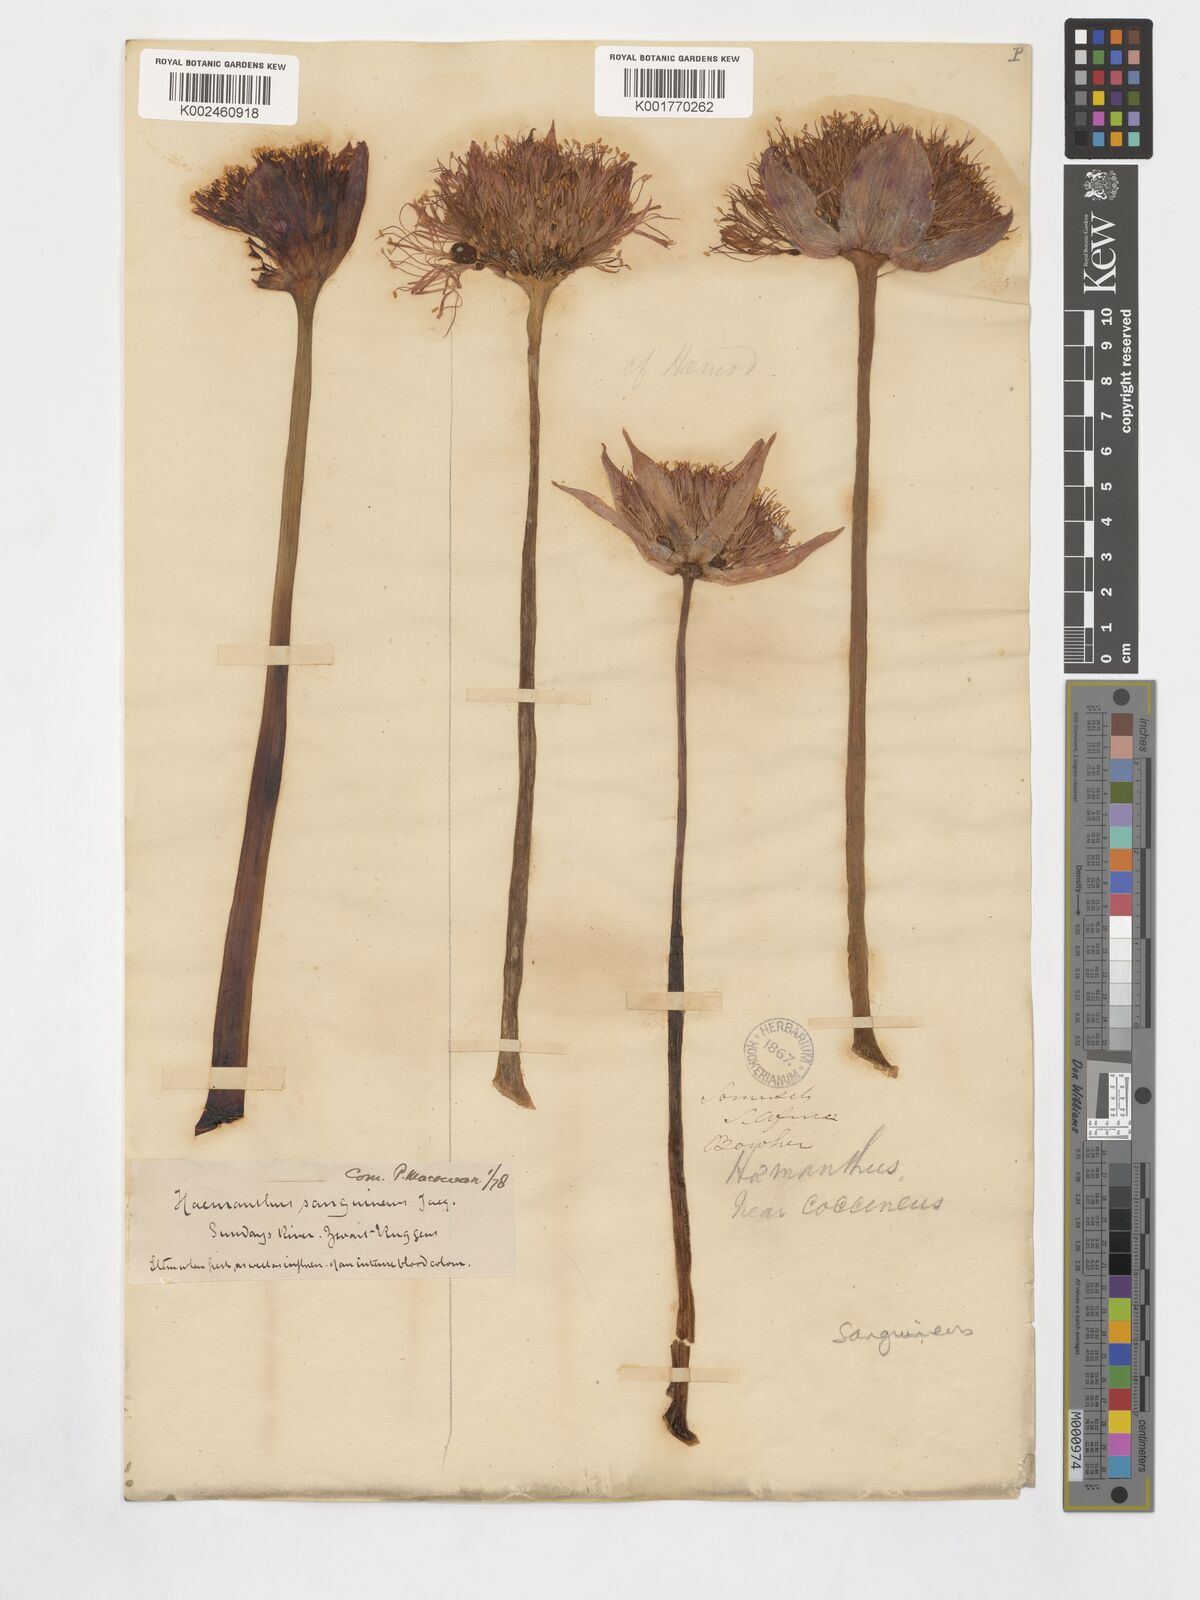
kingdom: Plantae
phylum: Tracheophyta
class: Liliopsida
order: Asparagales
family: Amaryllidaceae
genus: Haemanthus
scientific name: Haemanthus sanguineus
